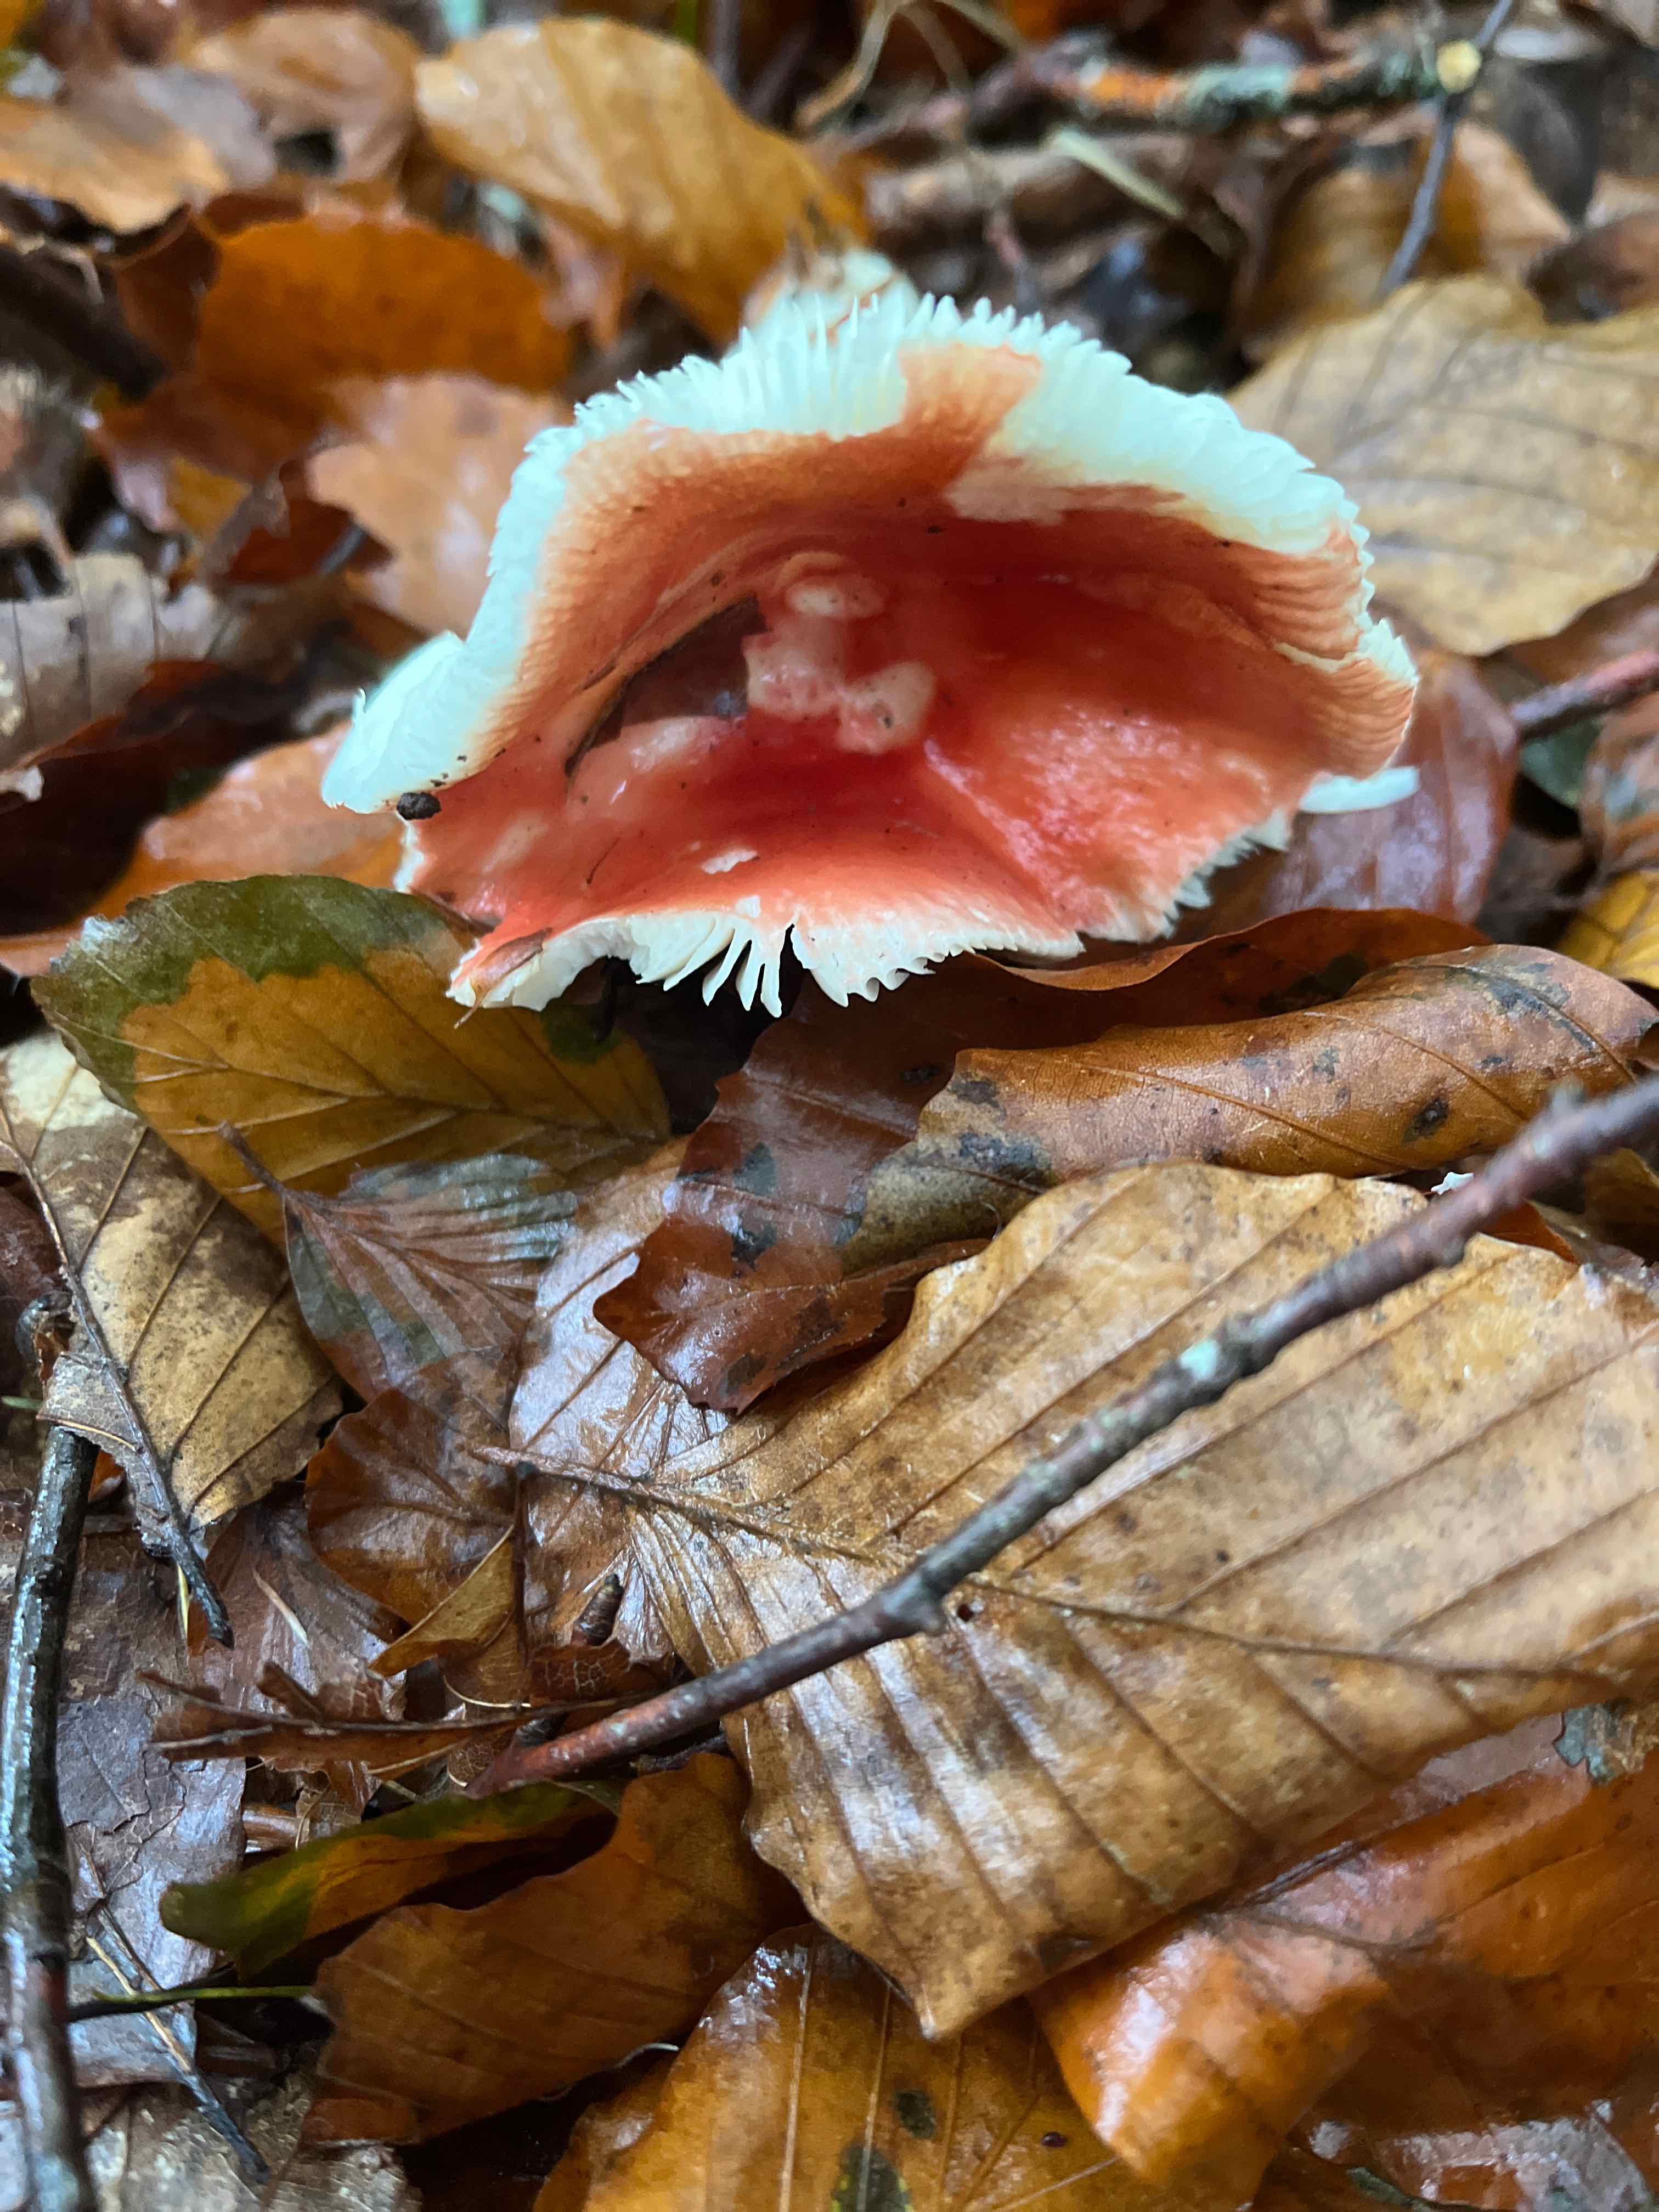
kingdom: Fungi
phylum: Basidiomycota
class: Agaricomycetes
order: Russulales
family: Russulaceae
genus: Russula
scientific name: Russula
